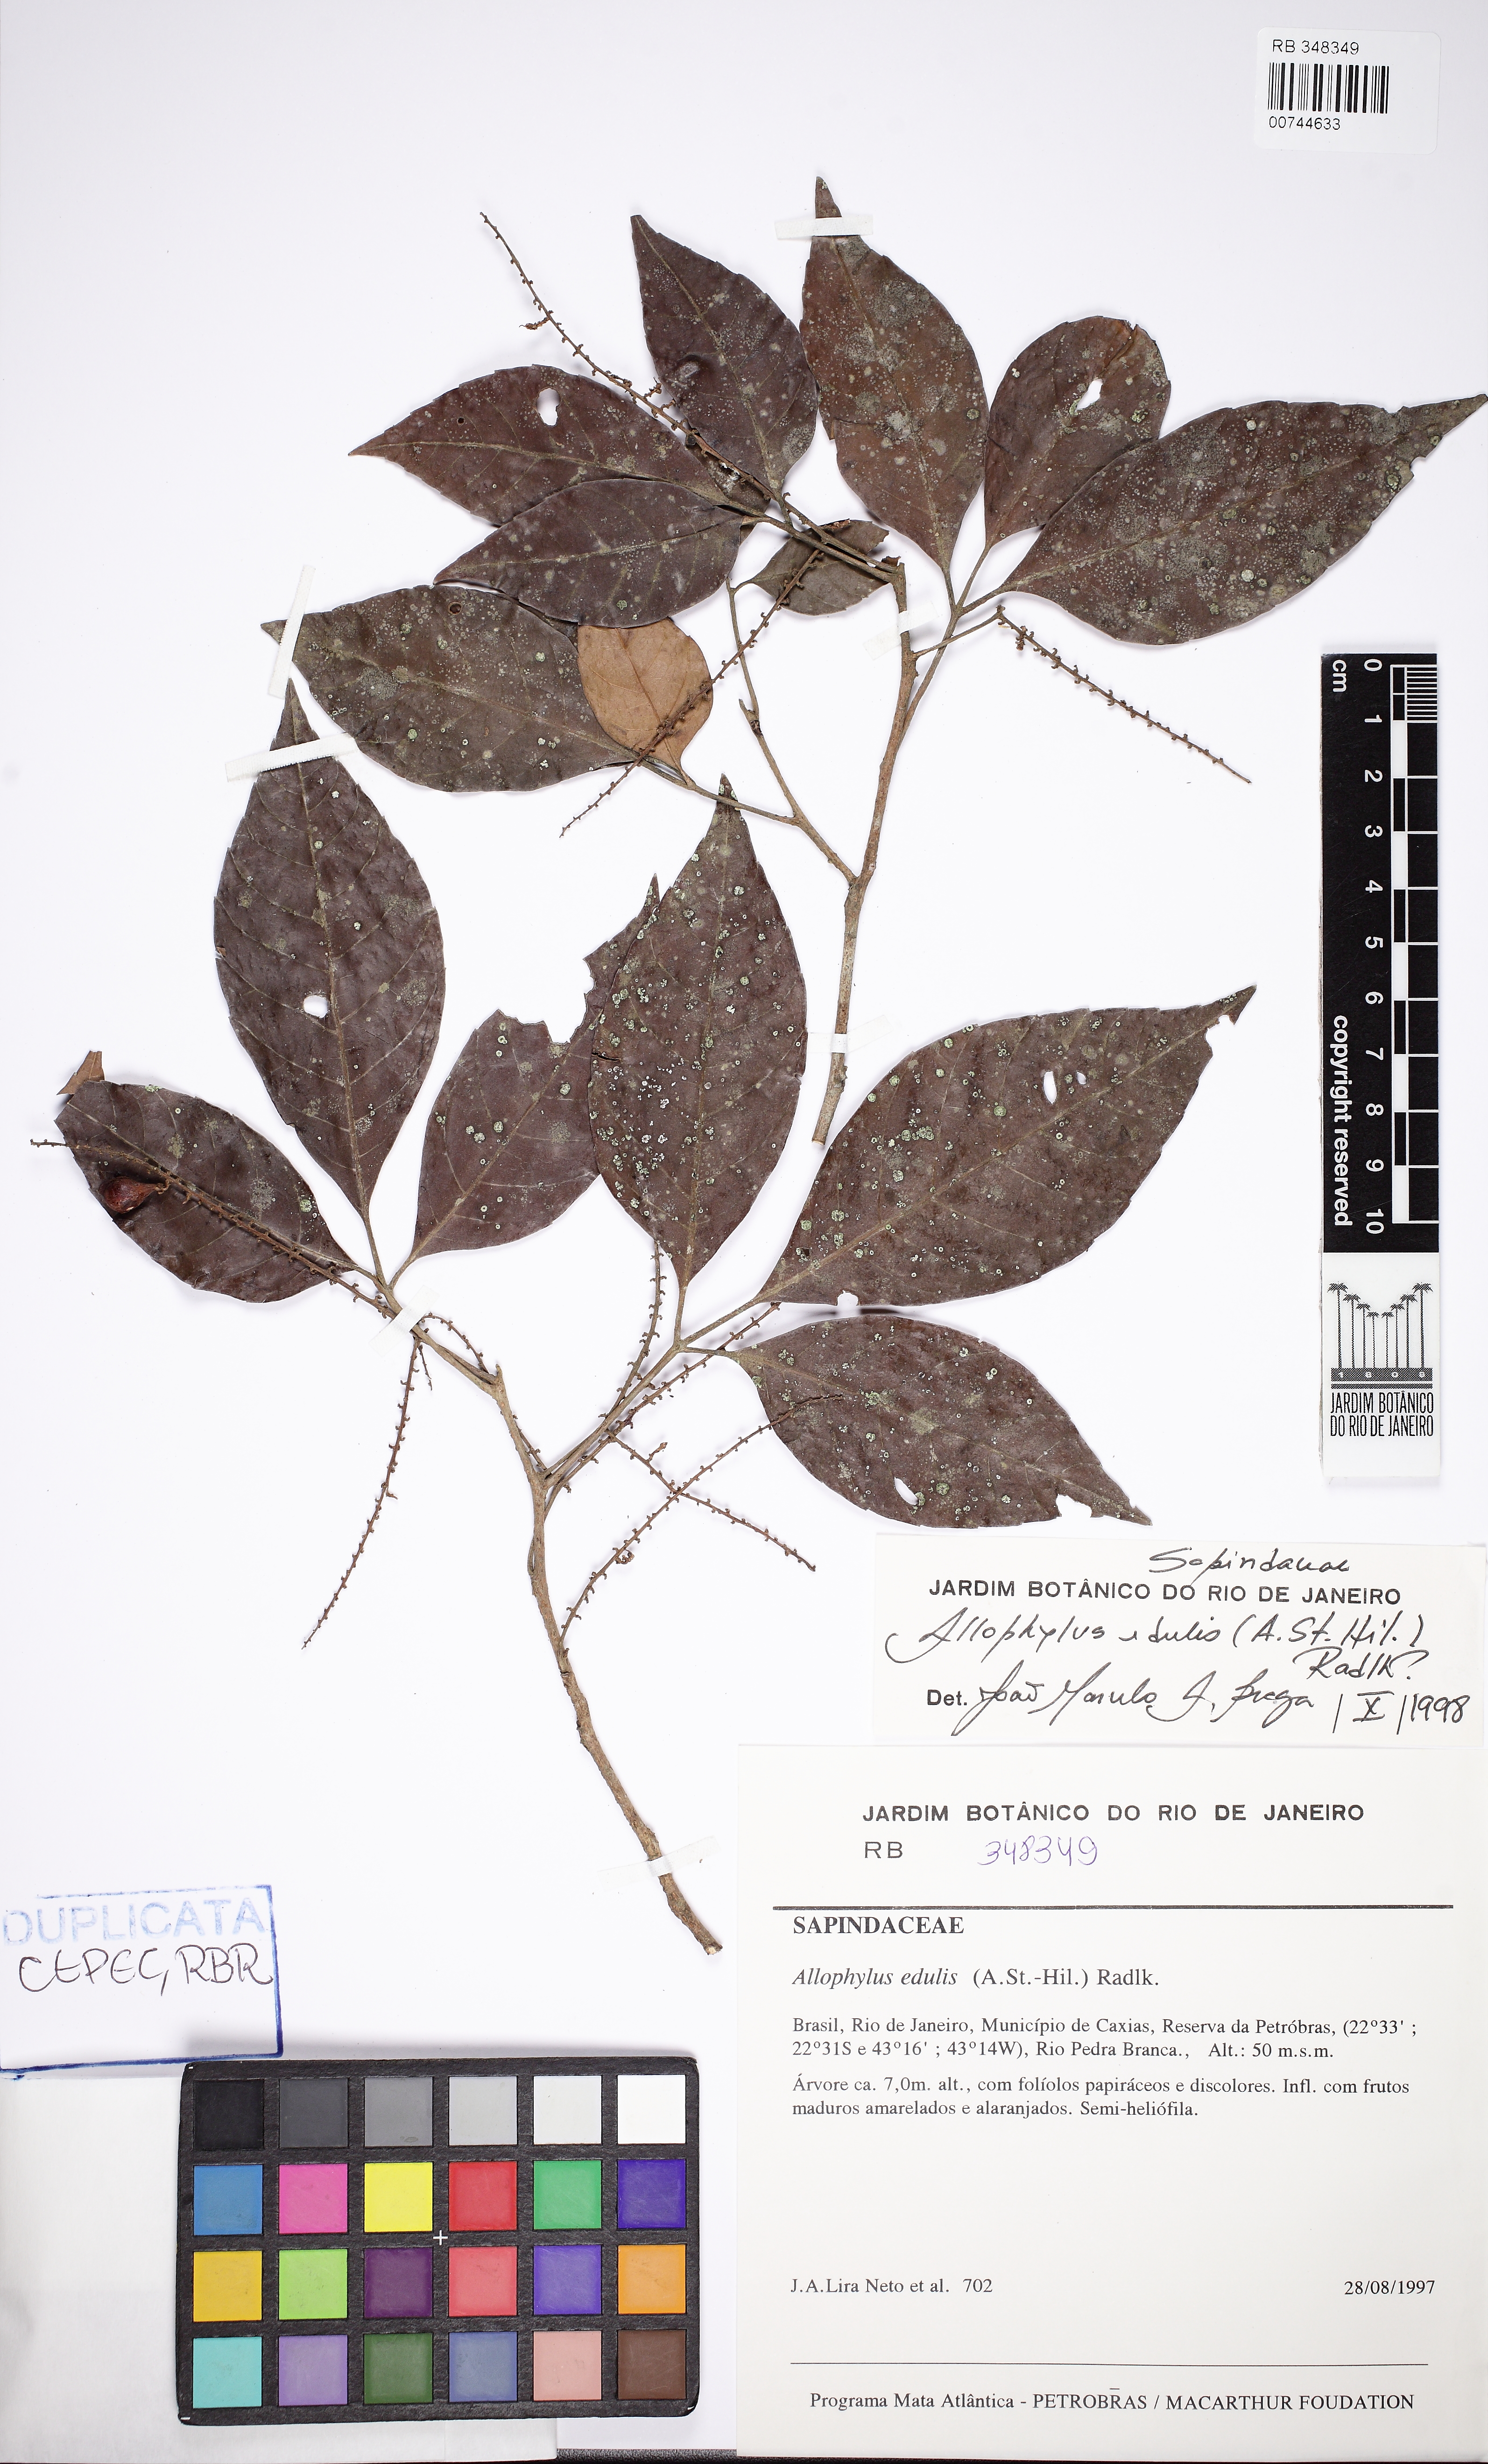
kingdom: Plantae
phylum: Tracheophyta
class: Magnoliopsida
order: Sapindales
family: Sapindaceae
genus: Allophylus
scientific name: Allophylus petiolulatus
